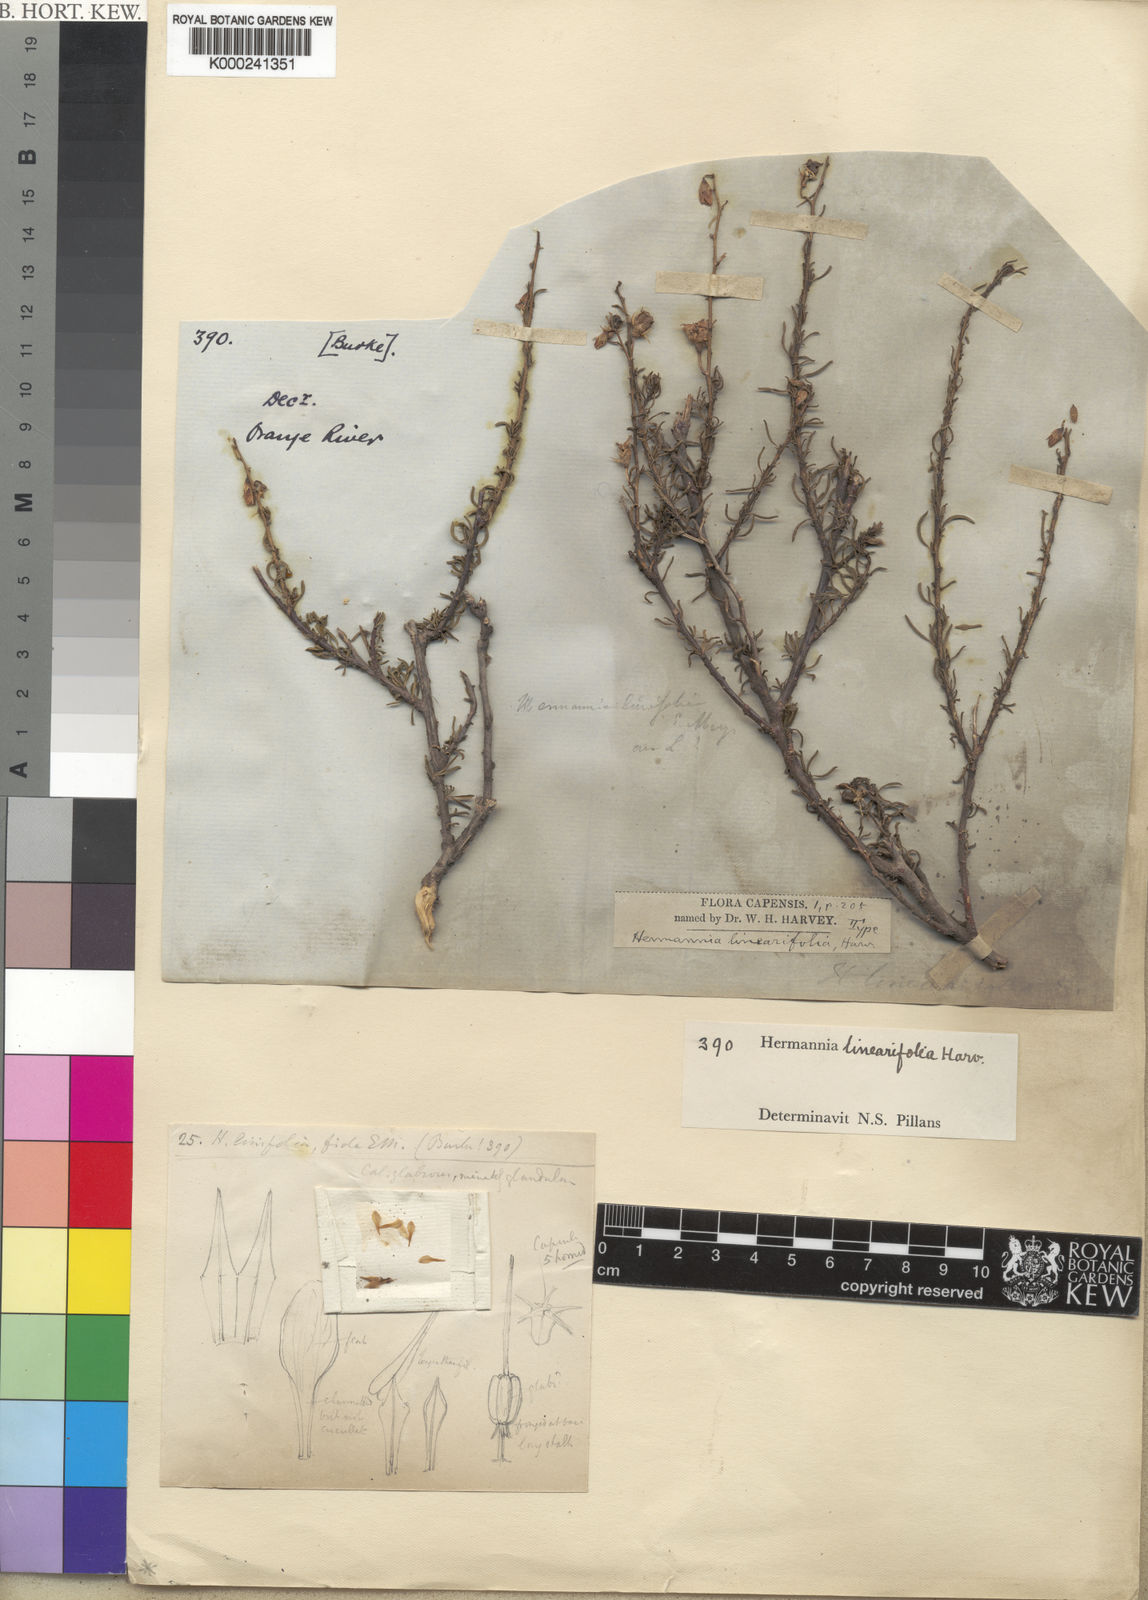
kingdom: Plantae
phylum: Tracheophyta
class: Magnoliopsida
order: Malvales
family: Malvaceae
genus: Hermannia
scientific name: Hermannia linearifolia
